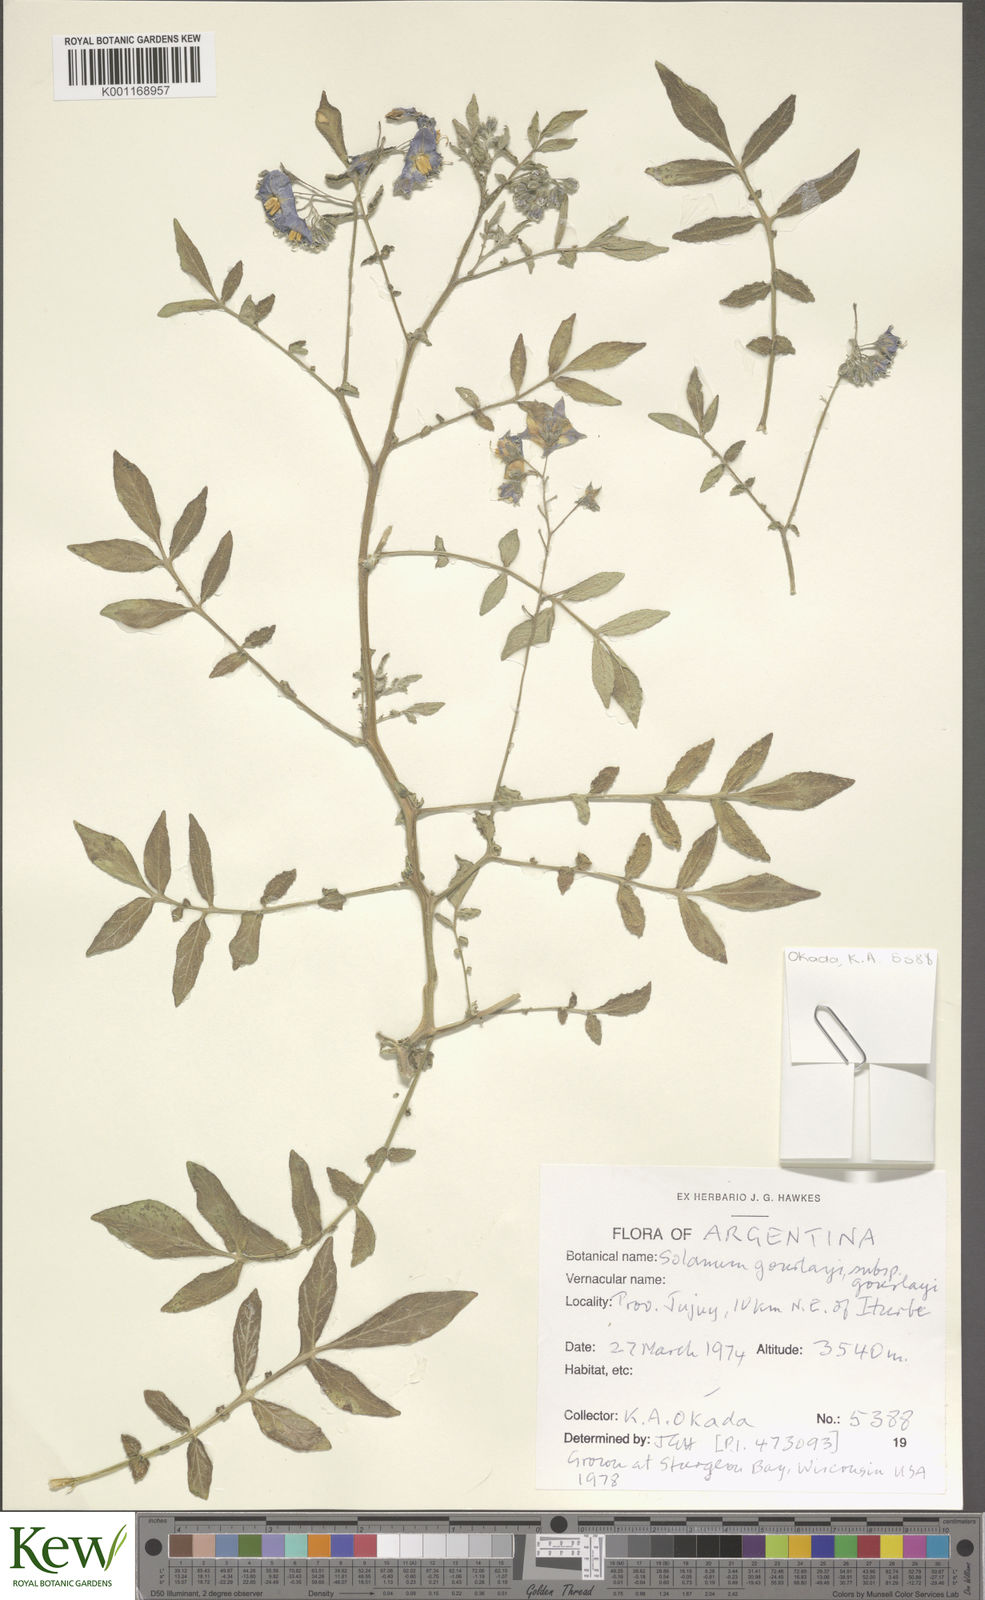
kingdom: Plantae
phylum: Tracheophyta
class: Magnoliopsida
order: Solanales
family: Solanaceae
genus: Solanum
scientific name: Solanum brevicaule
